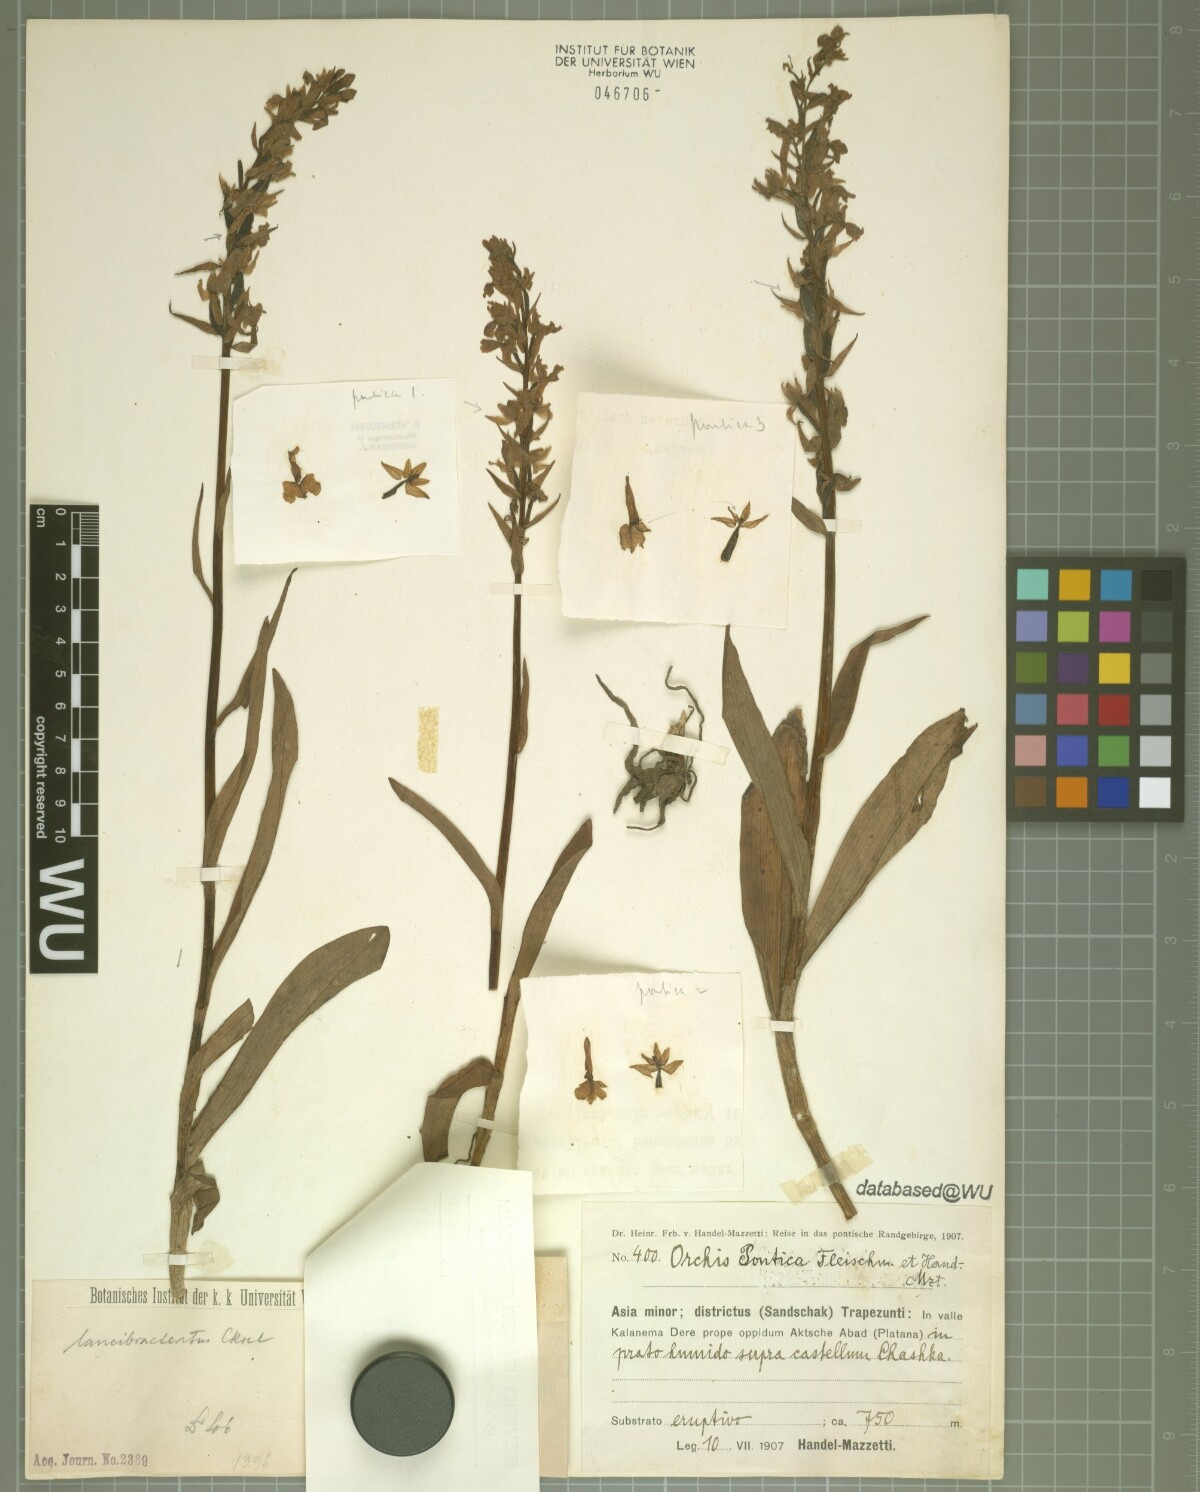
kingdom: Plantae
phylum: Tracheophyta
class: Liliopsida
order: Asparagales
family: Orchidaceae
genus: Dactylorhiza
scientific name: Dactylorhiza urvilleana
